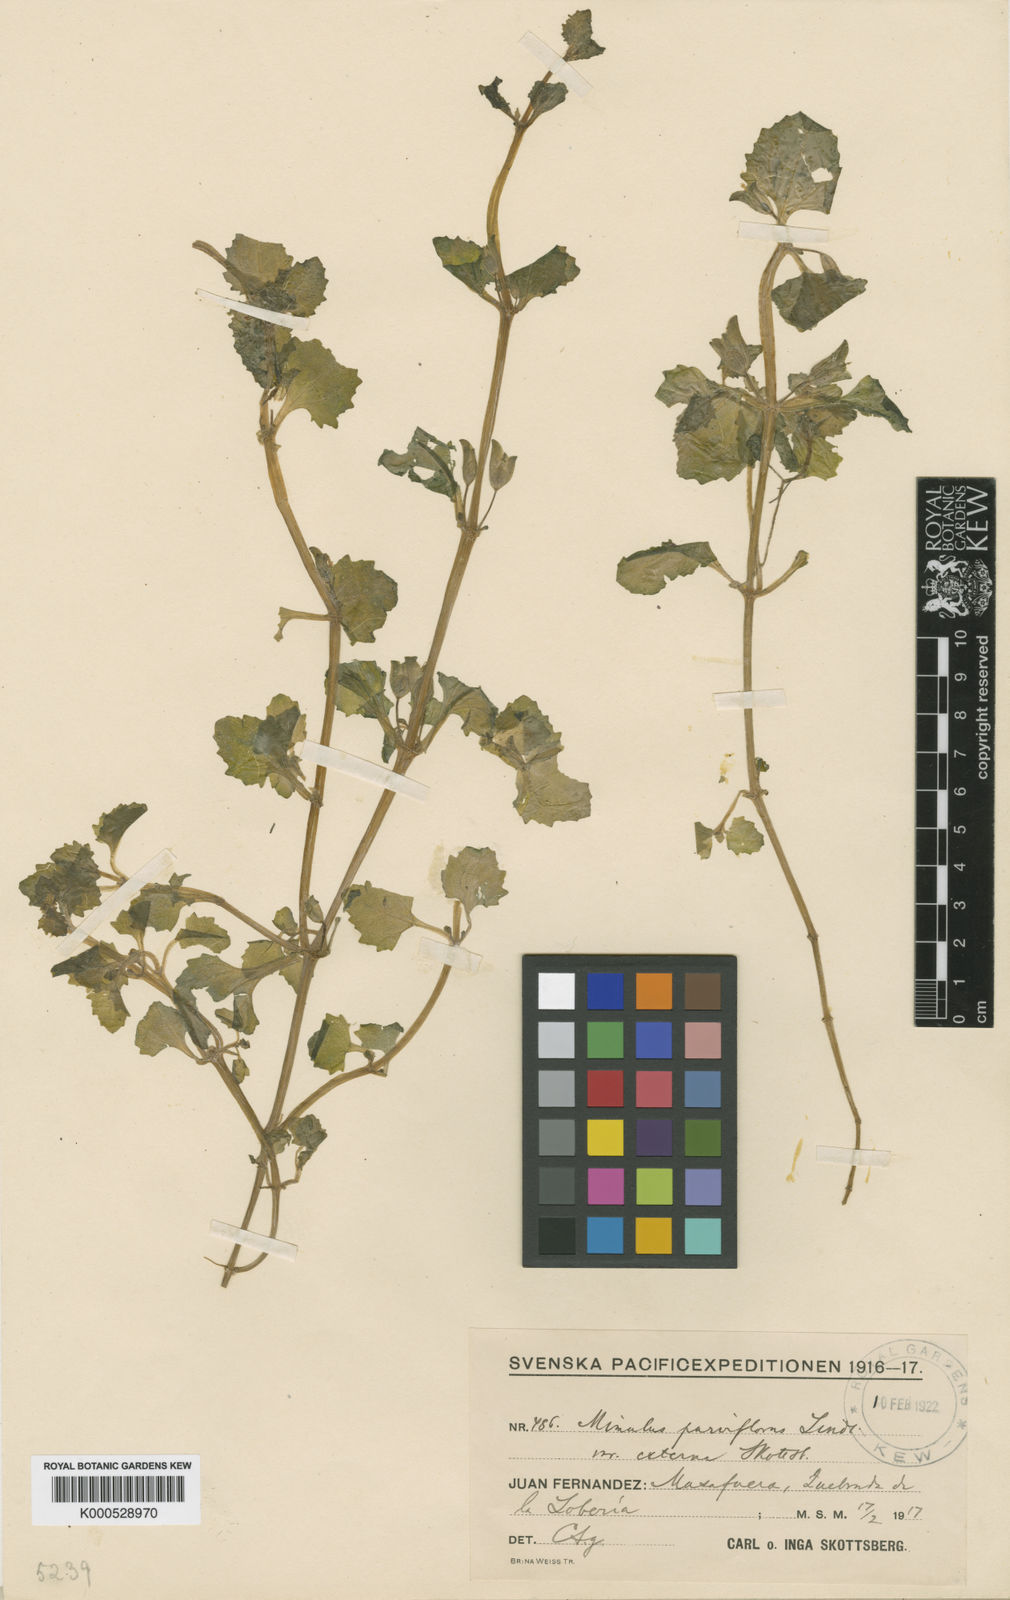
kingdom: Plantae
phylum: Tracheophyta
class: Magnoliopsida
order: Lamiales
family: Phrymaceae
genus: Erythranthe
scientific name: Erythranthe andicola
